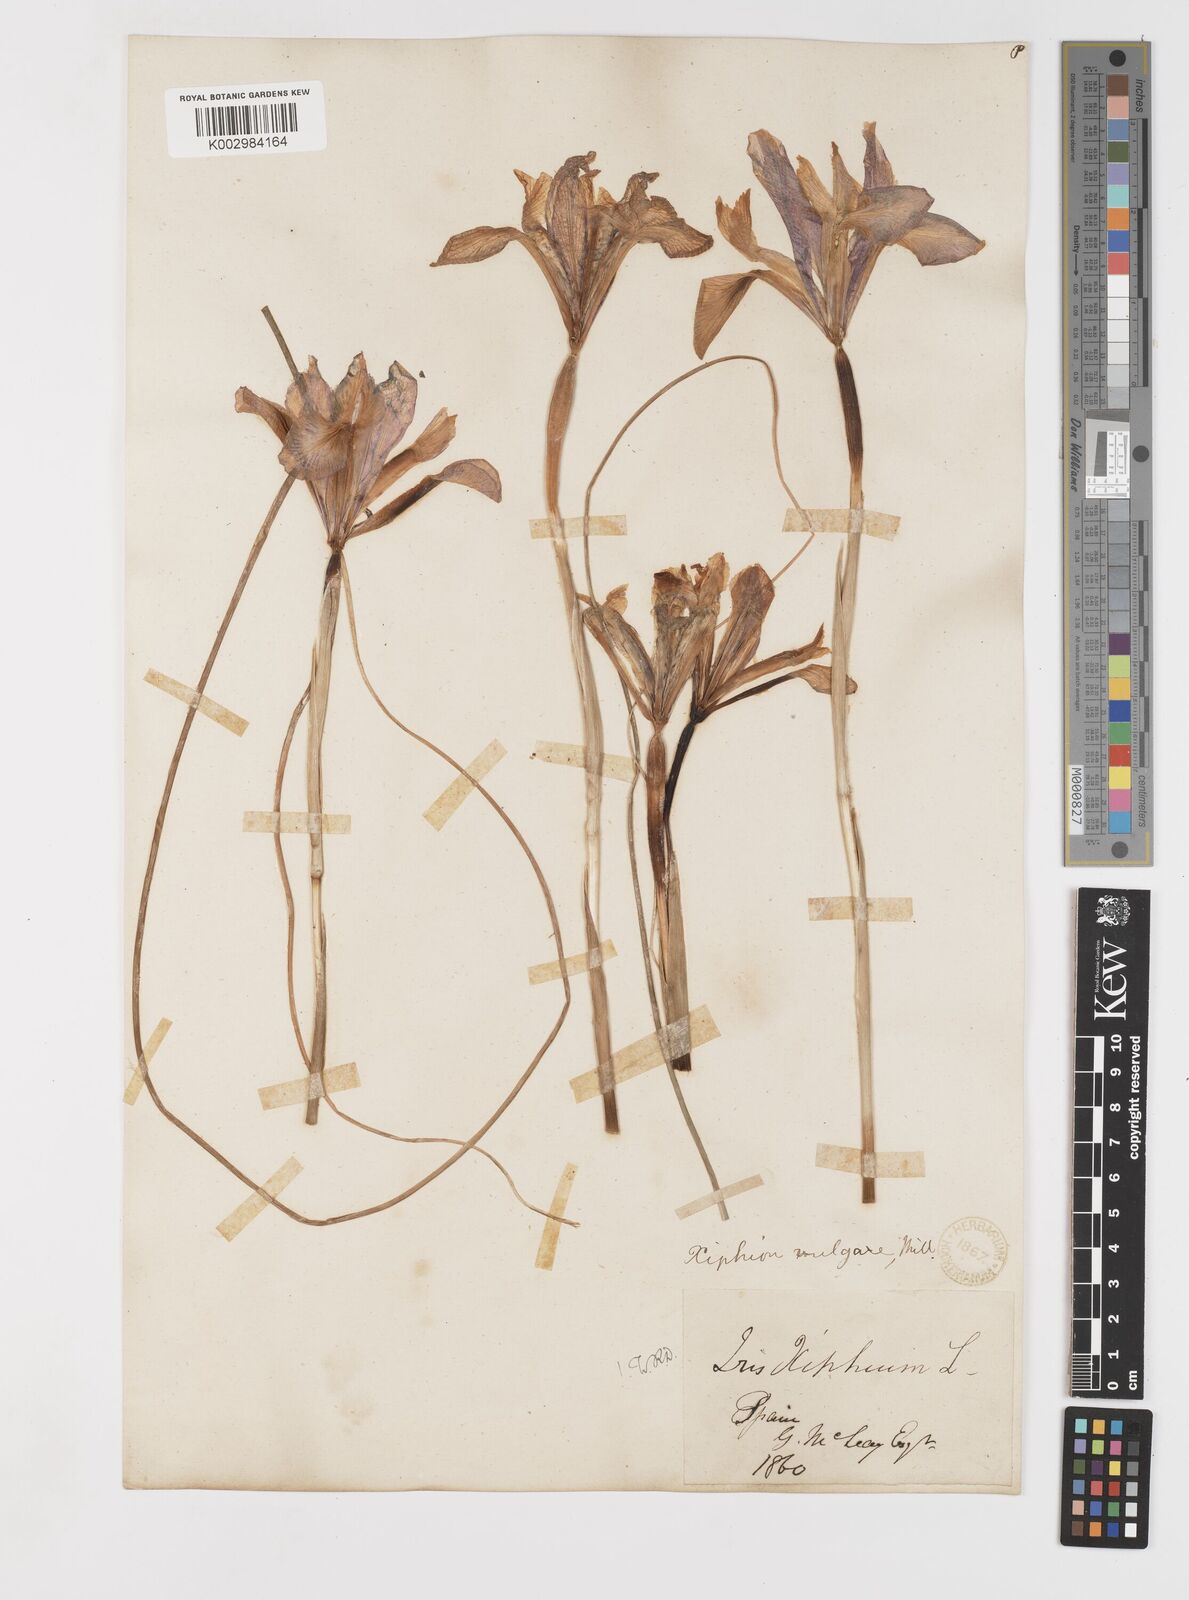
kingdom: Plantae
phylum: Tracheophyta
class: Liliopsida
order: Asparagales
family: Iridaceae
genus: Iris
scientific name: Iris xiphium
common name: Spanish iris
